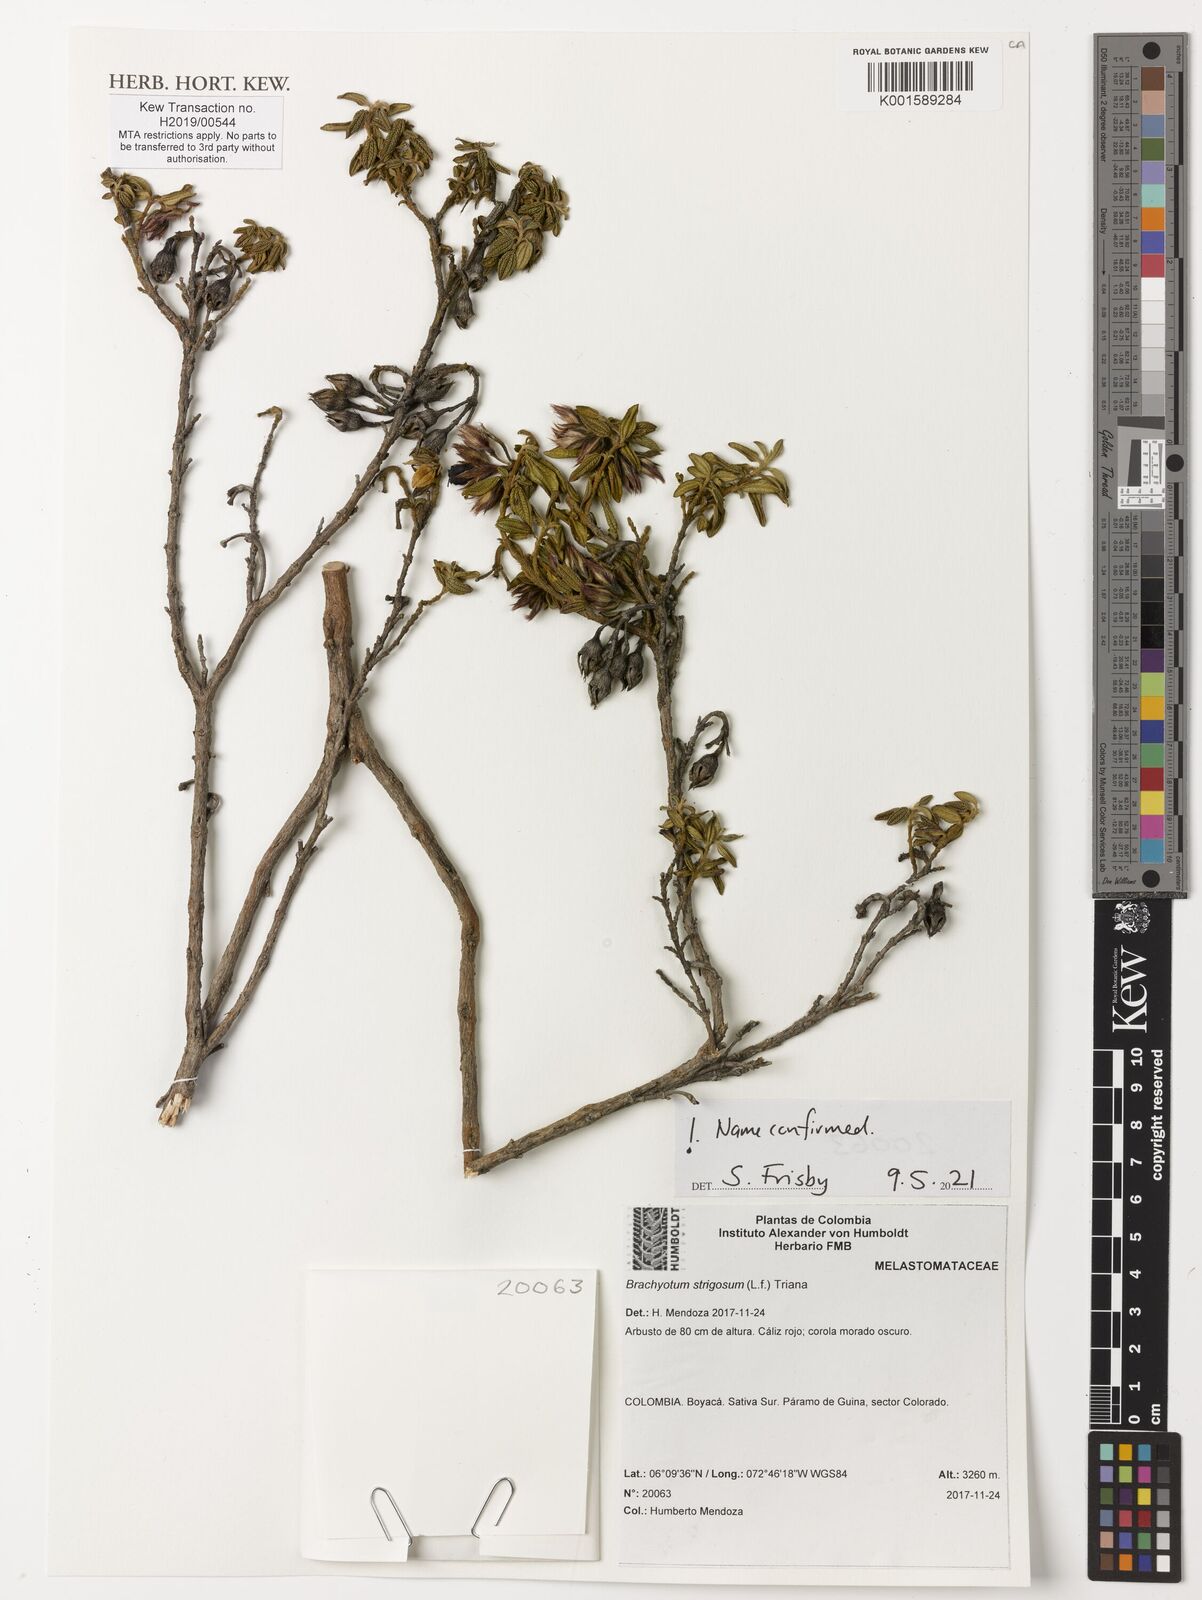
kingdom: Plantae
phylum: Tracheophyta
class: Magnoliopsida
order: Myrtales
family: Melastomataceae
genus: Brachyotum
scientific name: Brachyotum strigosum
